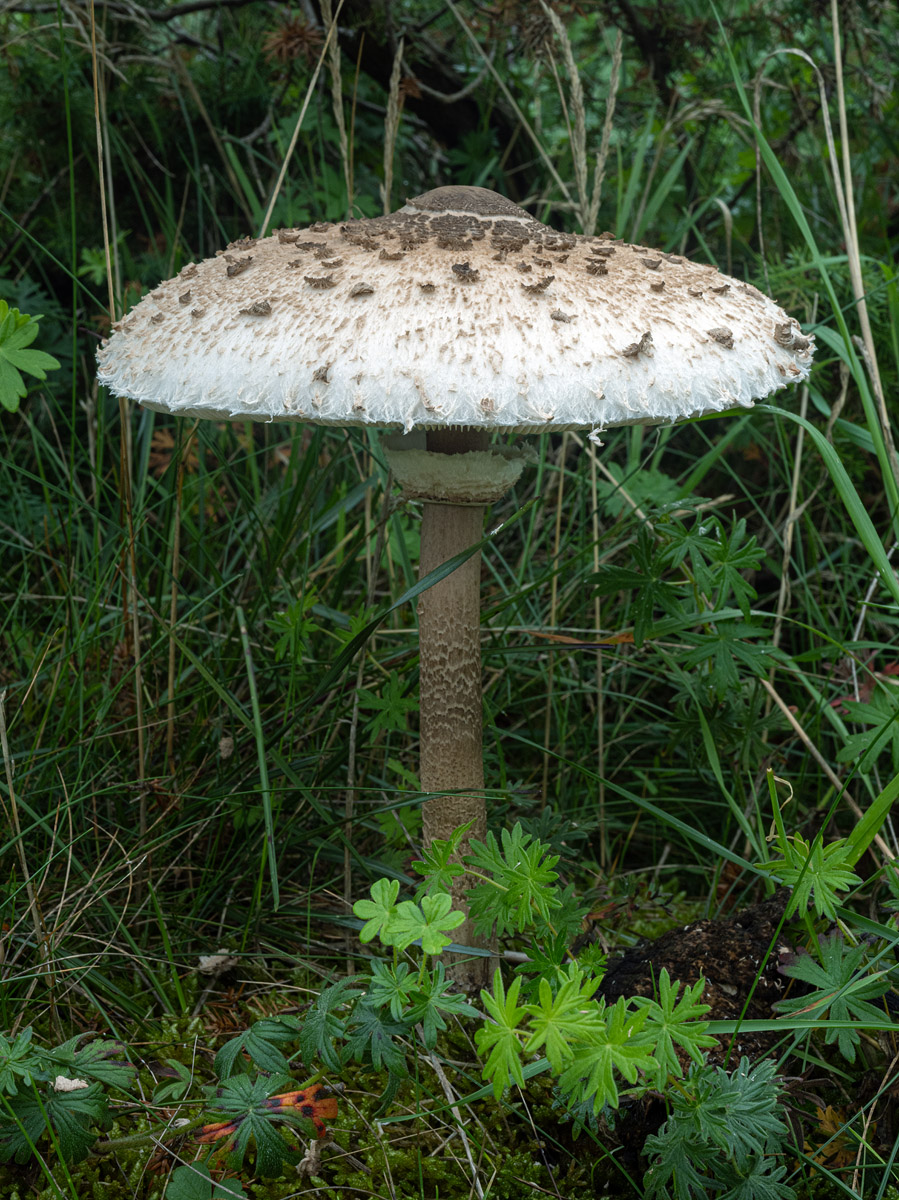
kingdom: Fungi
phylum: Basidiomycota
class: Agaricomycetes
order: Agaricales
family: Agaricaceae
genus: Macrolepiota
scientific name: Macrolepiota procera
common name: stor kæmpeparasolhat
